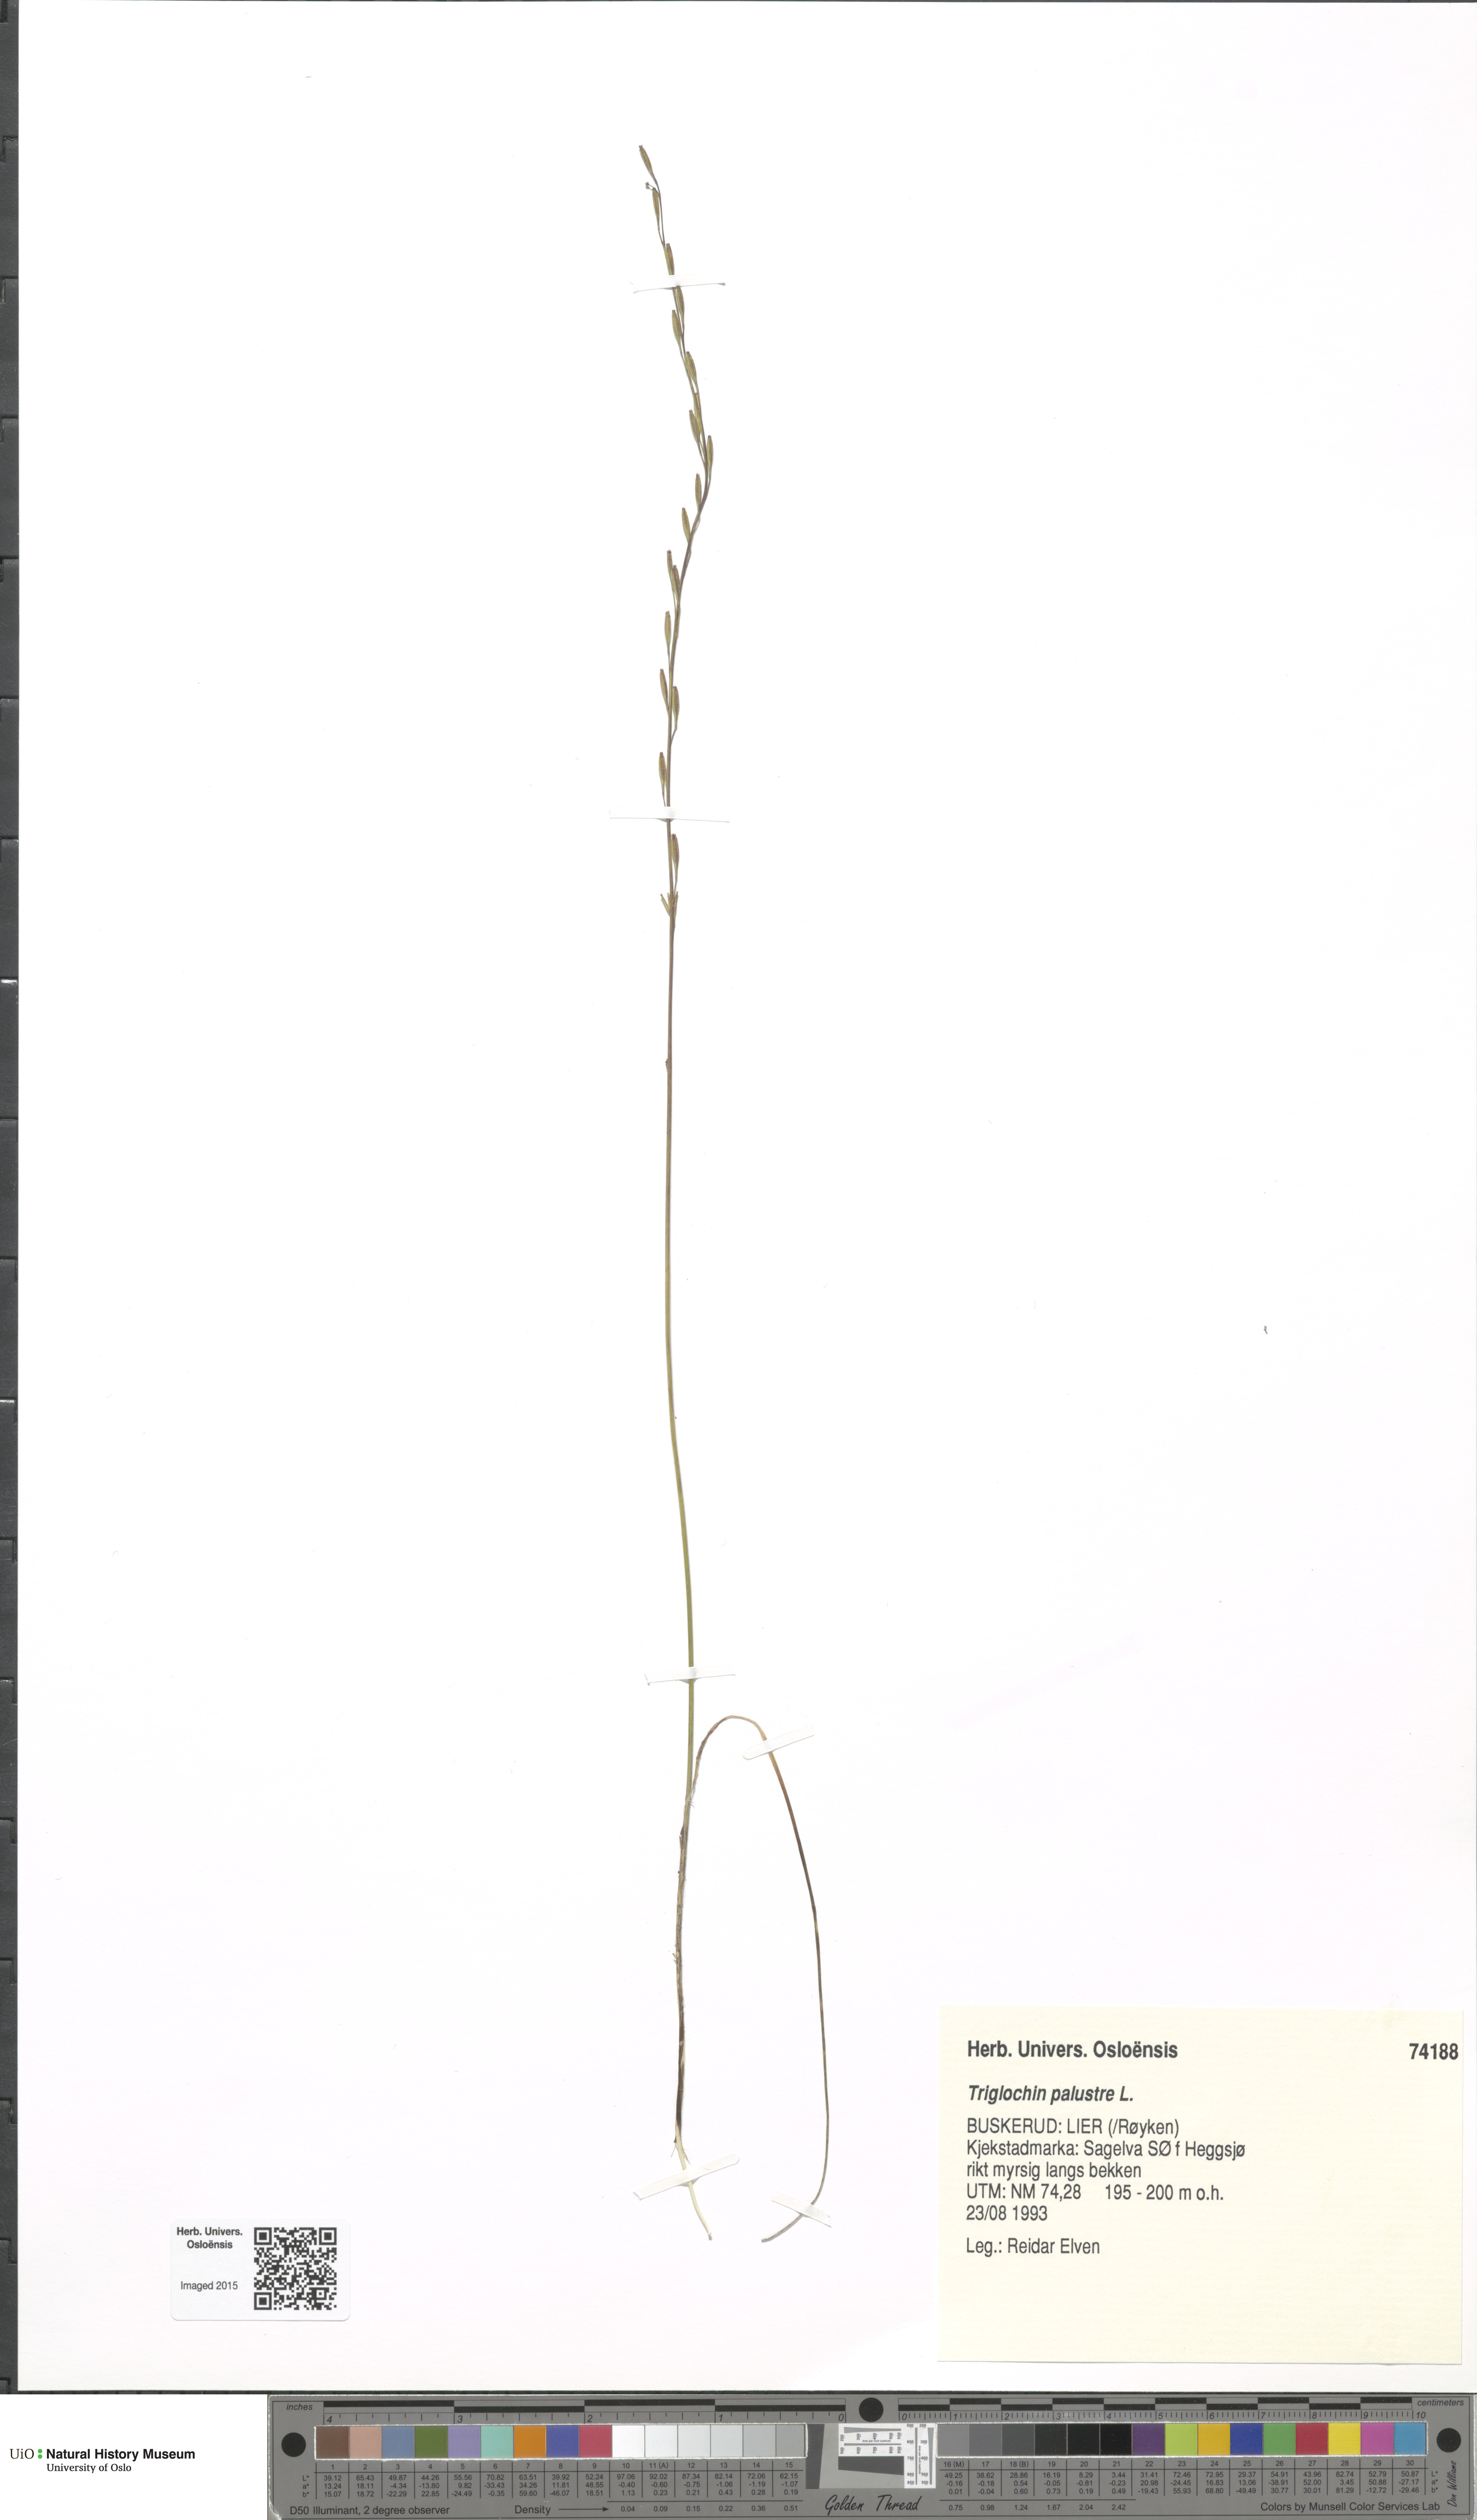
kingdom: Plantae
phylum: Tracheophyta
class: Liliopsida
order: Alismatales
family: Juncaginaceae
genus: Triglochin
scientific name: Triglochin palustris
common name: Marsh arrowgrass
